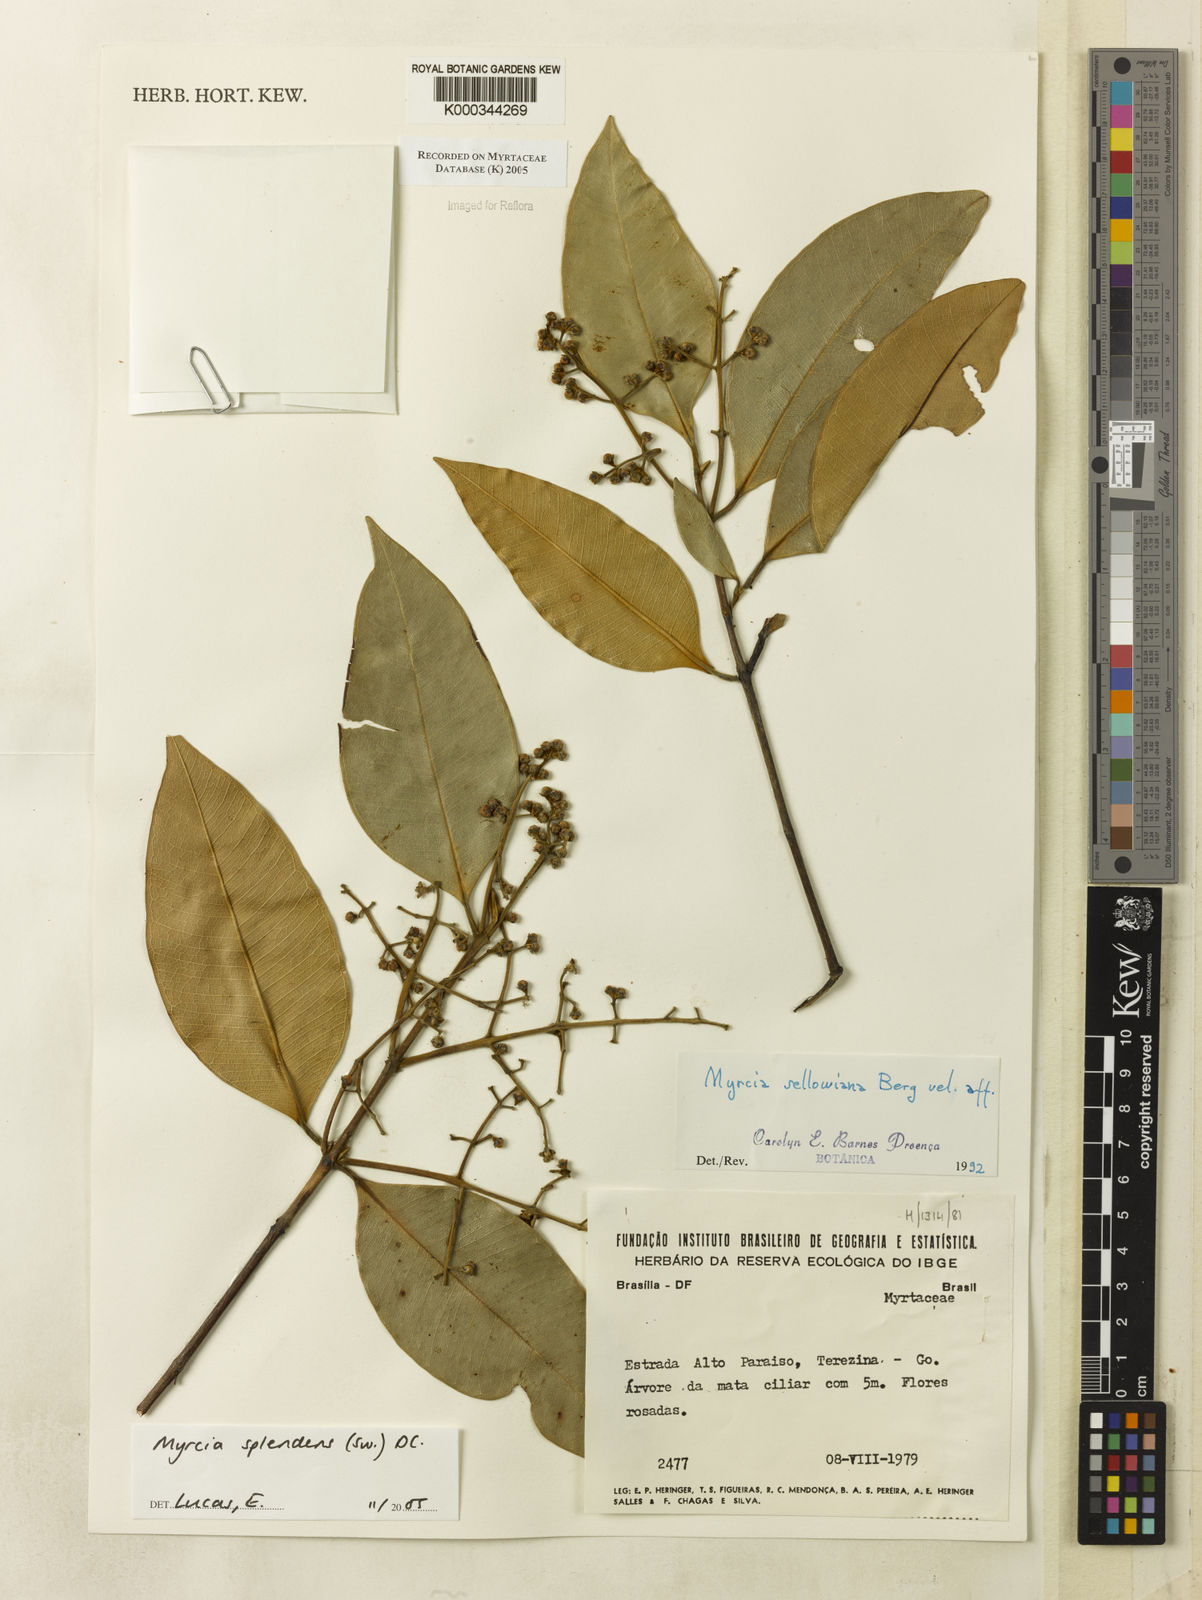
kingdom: Plantae
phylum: Tracheophyta
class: Magnoliopsida
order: Myrtales
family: Myrtaceae
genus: Myrcia
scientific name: Myrcia
